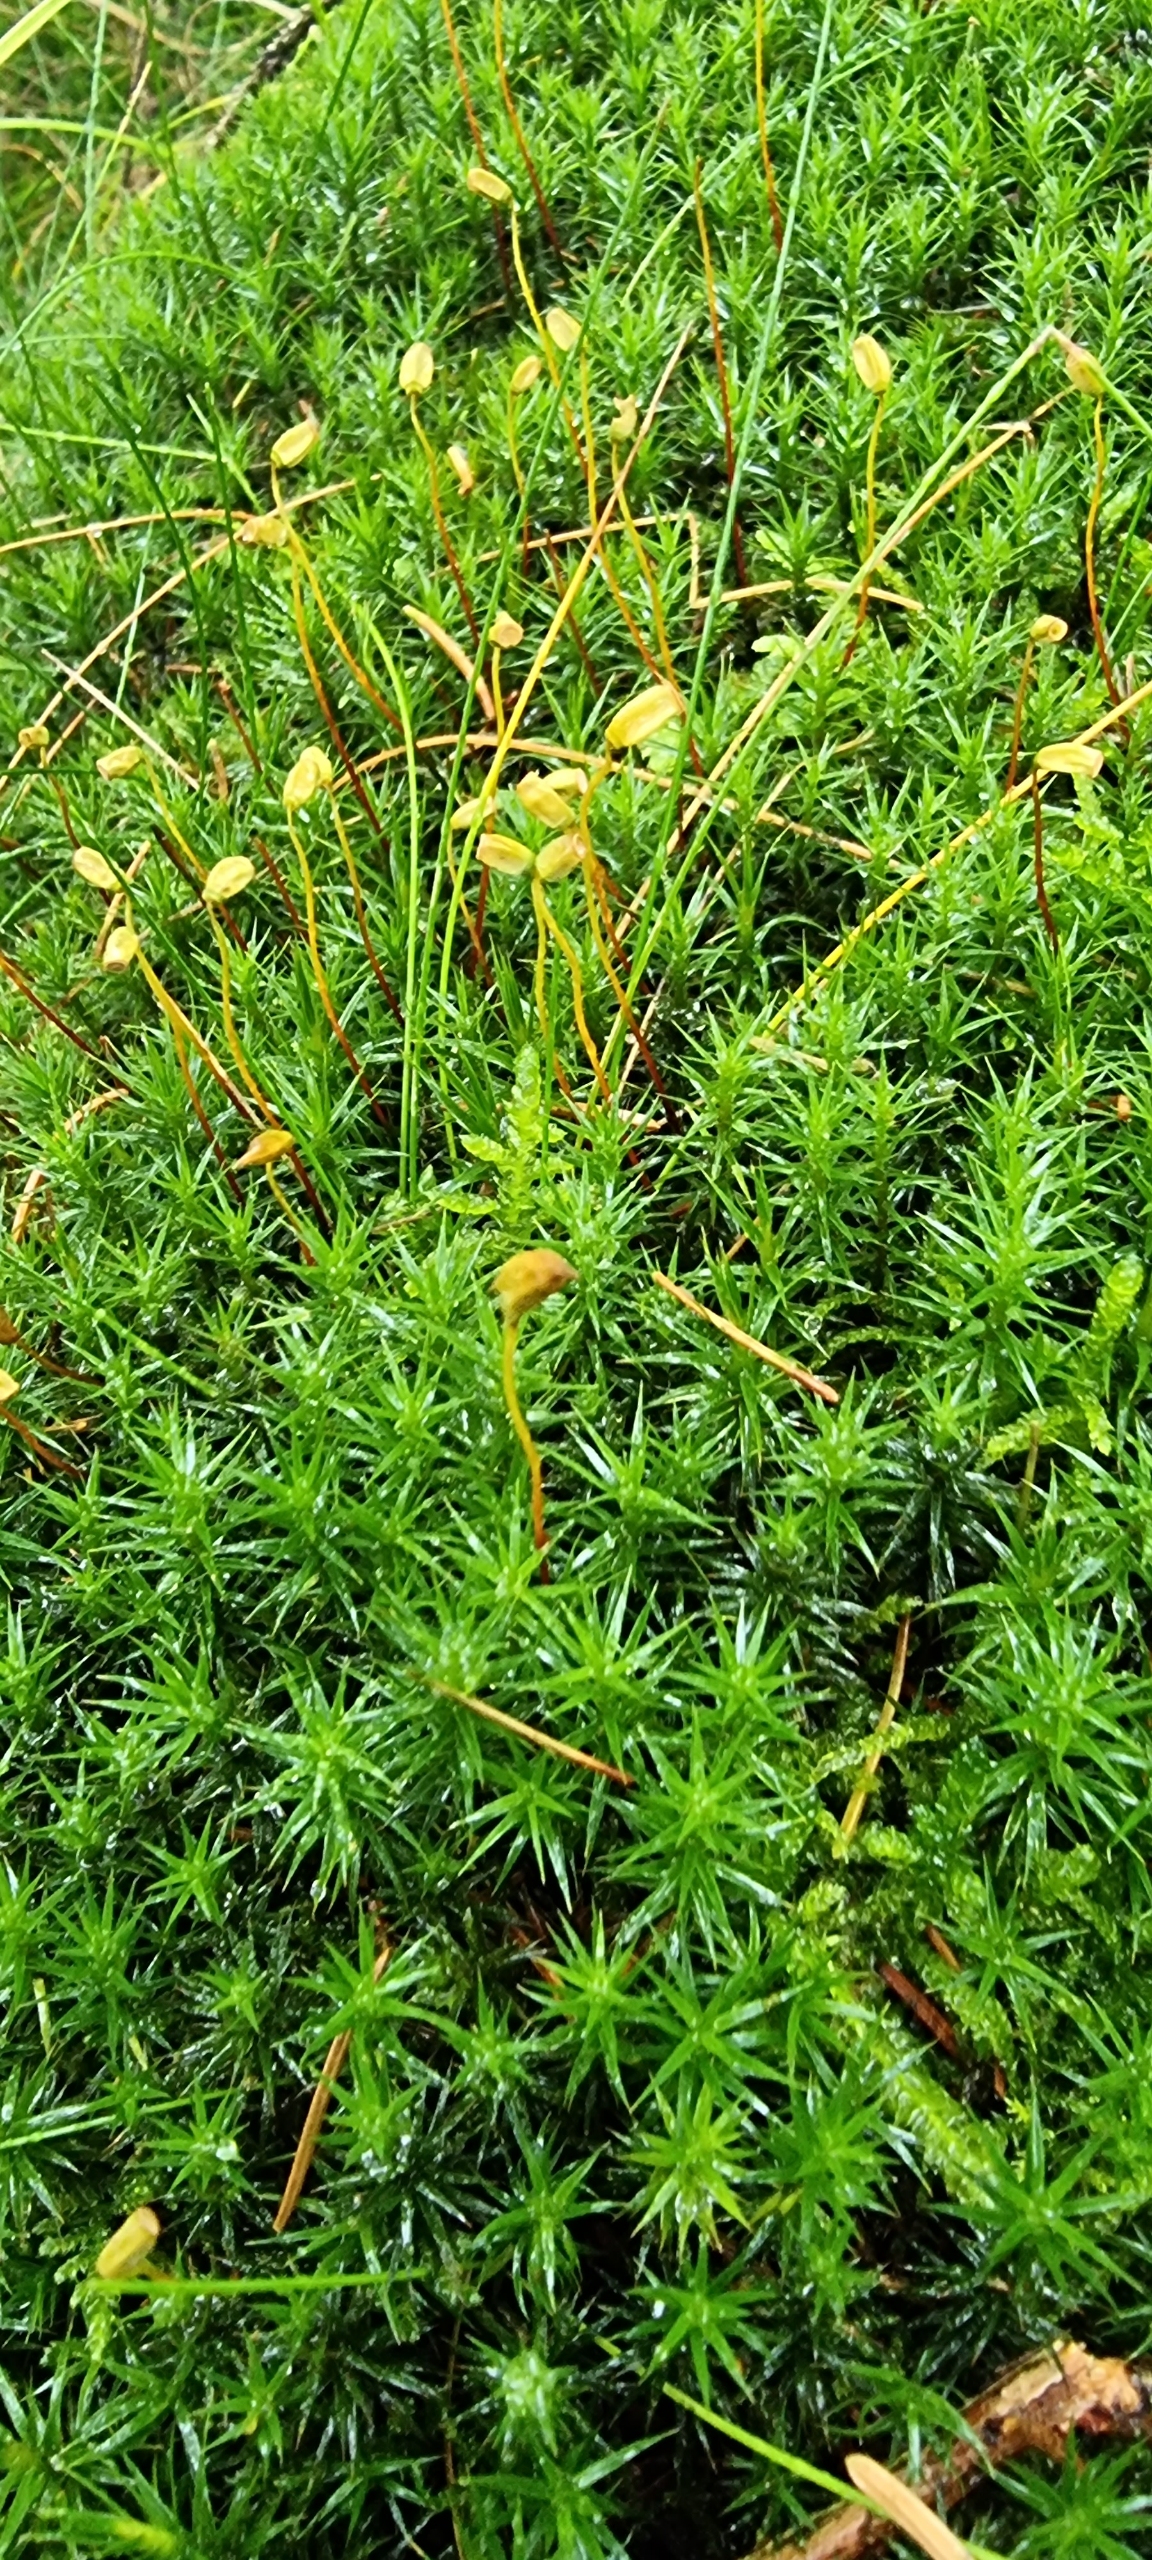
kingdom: Plantae
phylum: Bryophyta
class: Polytrichopsida
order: Polytrichales
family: Polytrichaceae
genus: Polytrichum
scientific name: Polytrichum formosum
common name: Skov-jomfruhår
